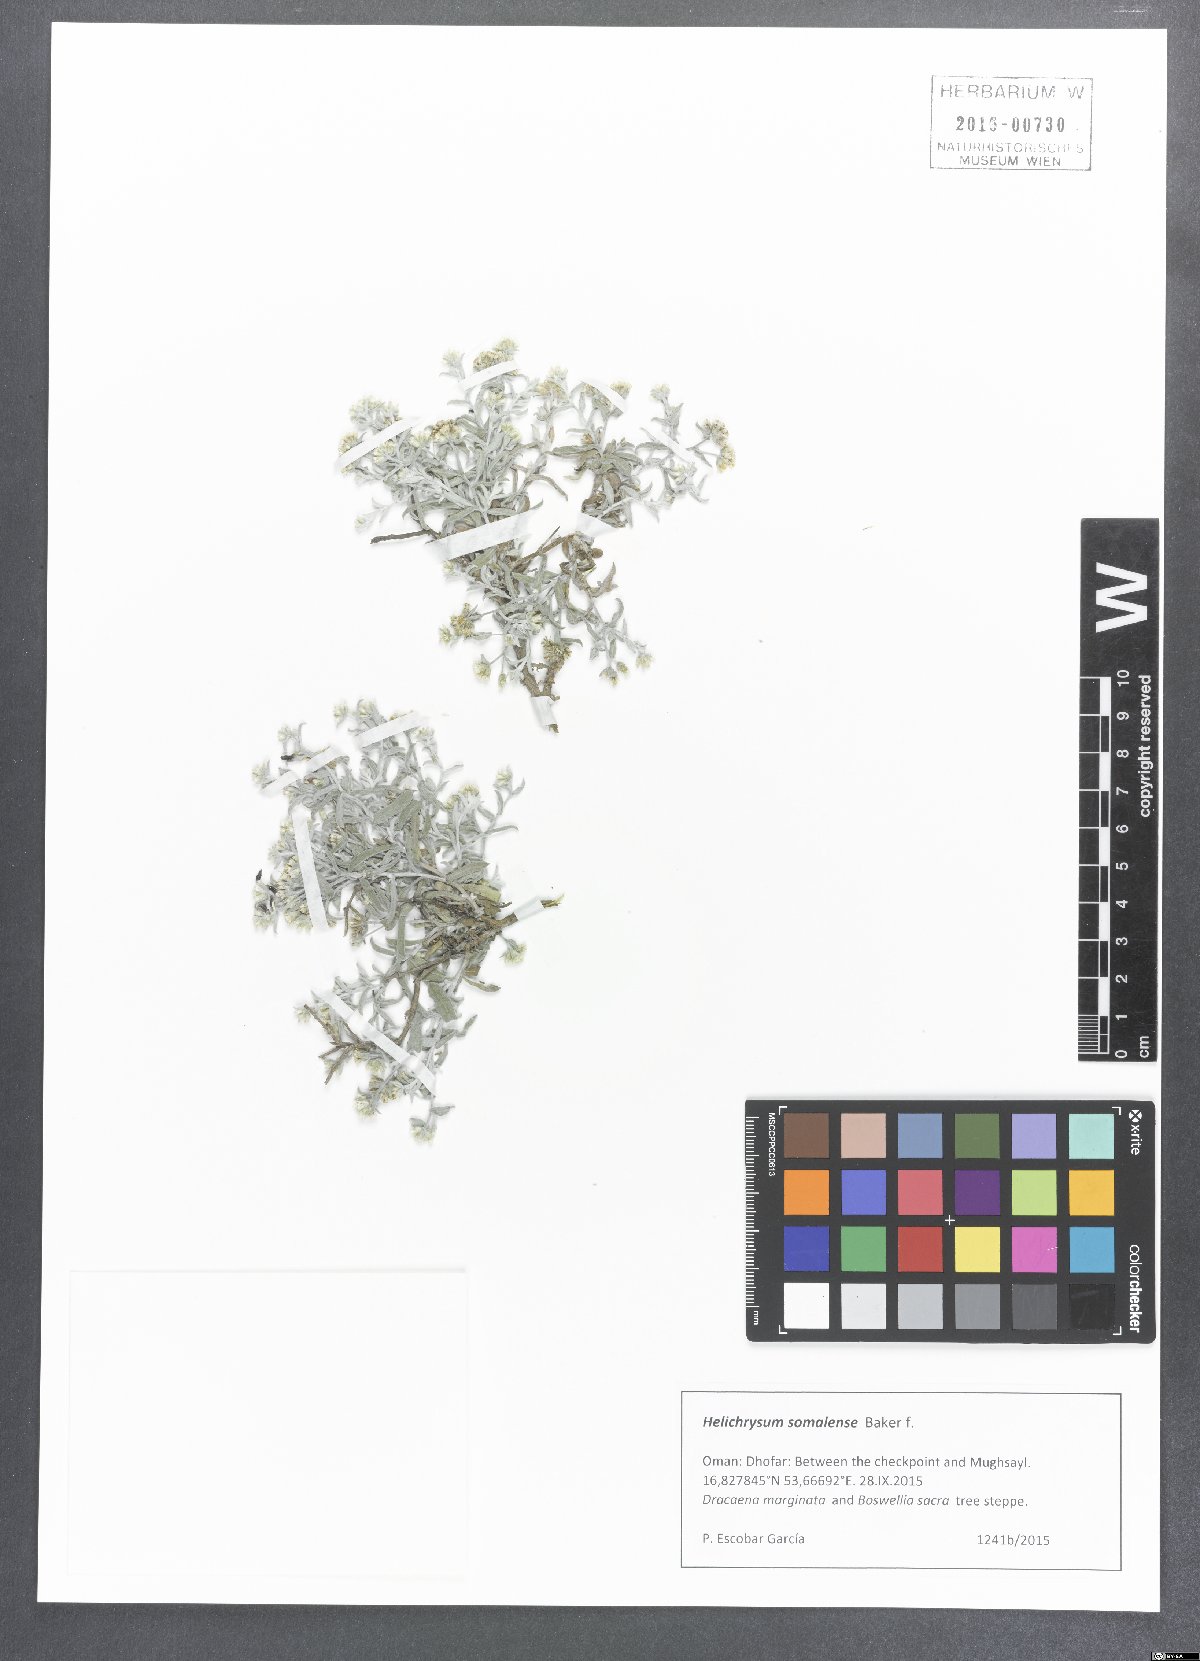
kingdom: Plantae
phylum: Tracheophyta
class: Magnoliopsida
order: Asterales
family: Asteraceae
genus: Helichrysum
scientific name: Helichrysum somalense
